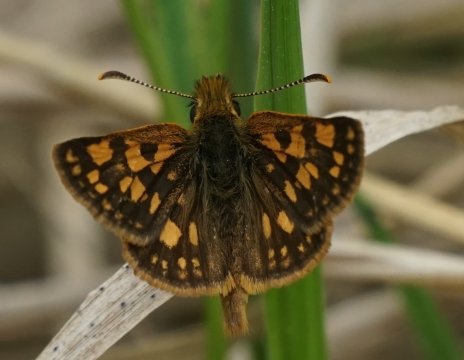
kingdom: Animalia
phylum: Arthropoda
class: Insecta
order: Lepidoptera
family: Hesperiidae
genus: Carterocephalus
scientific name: Carterocephalus mandan
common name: Arctic Skipperling
